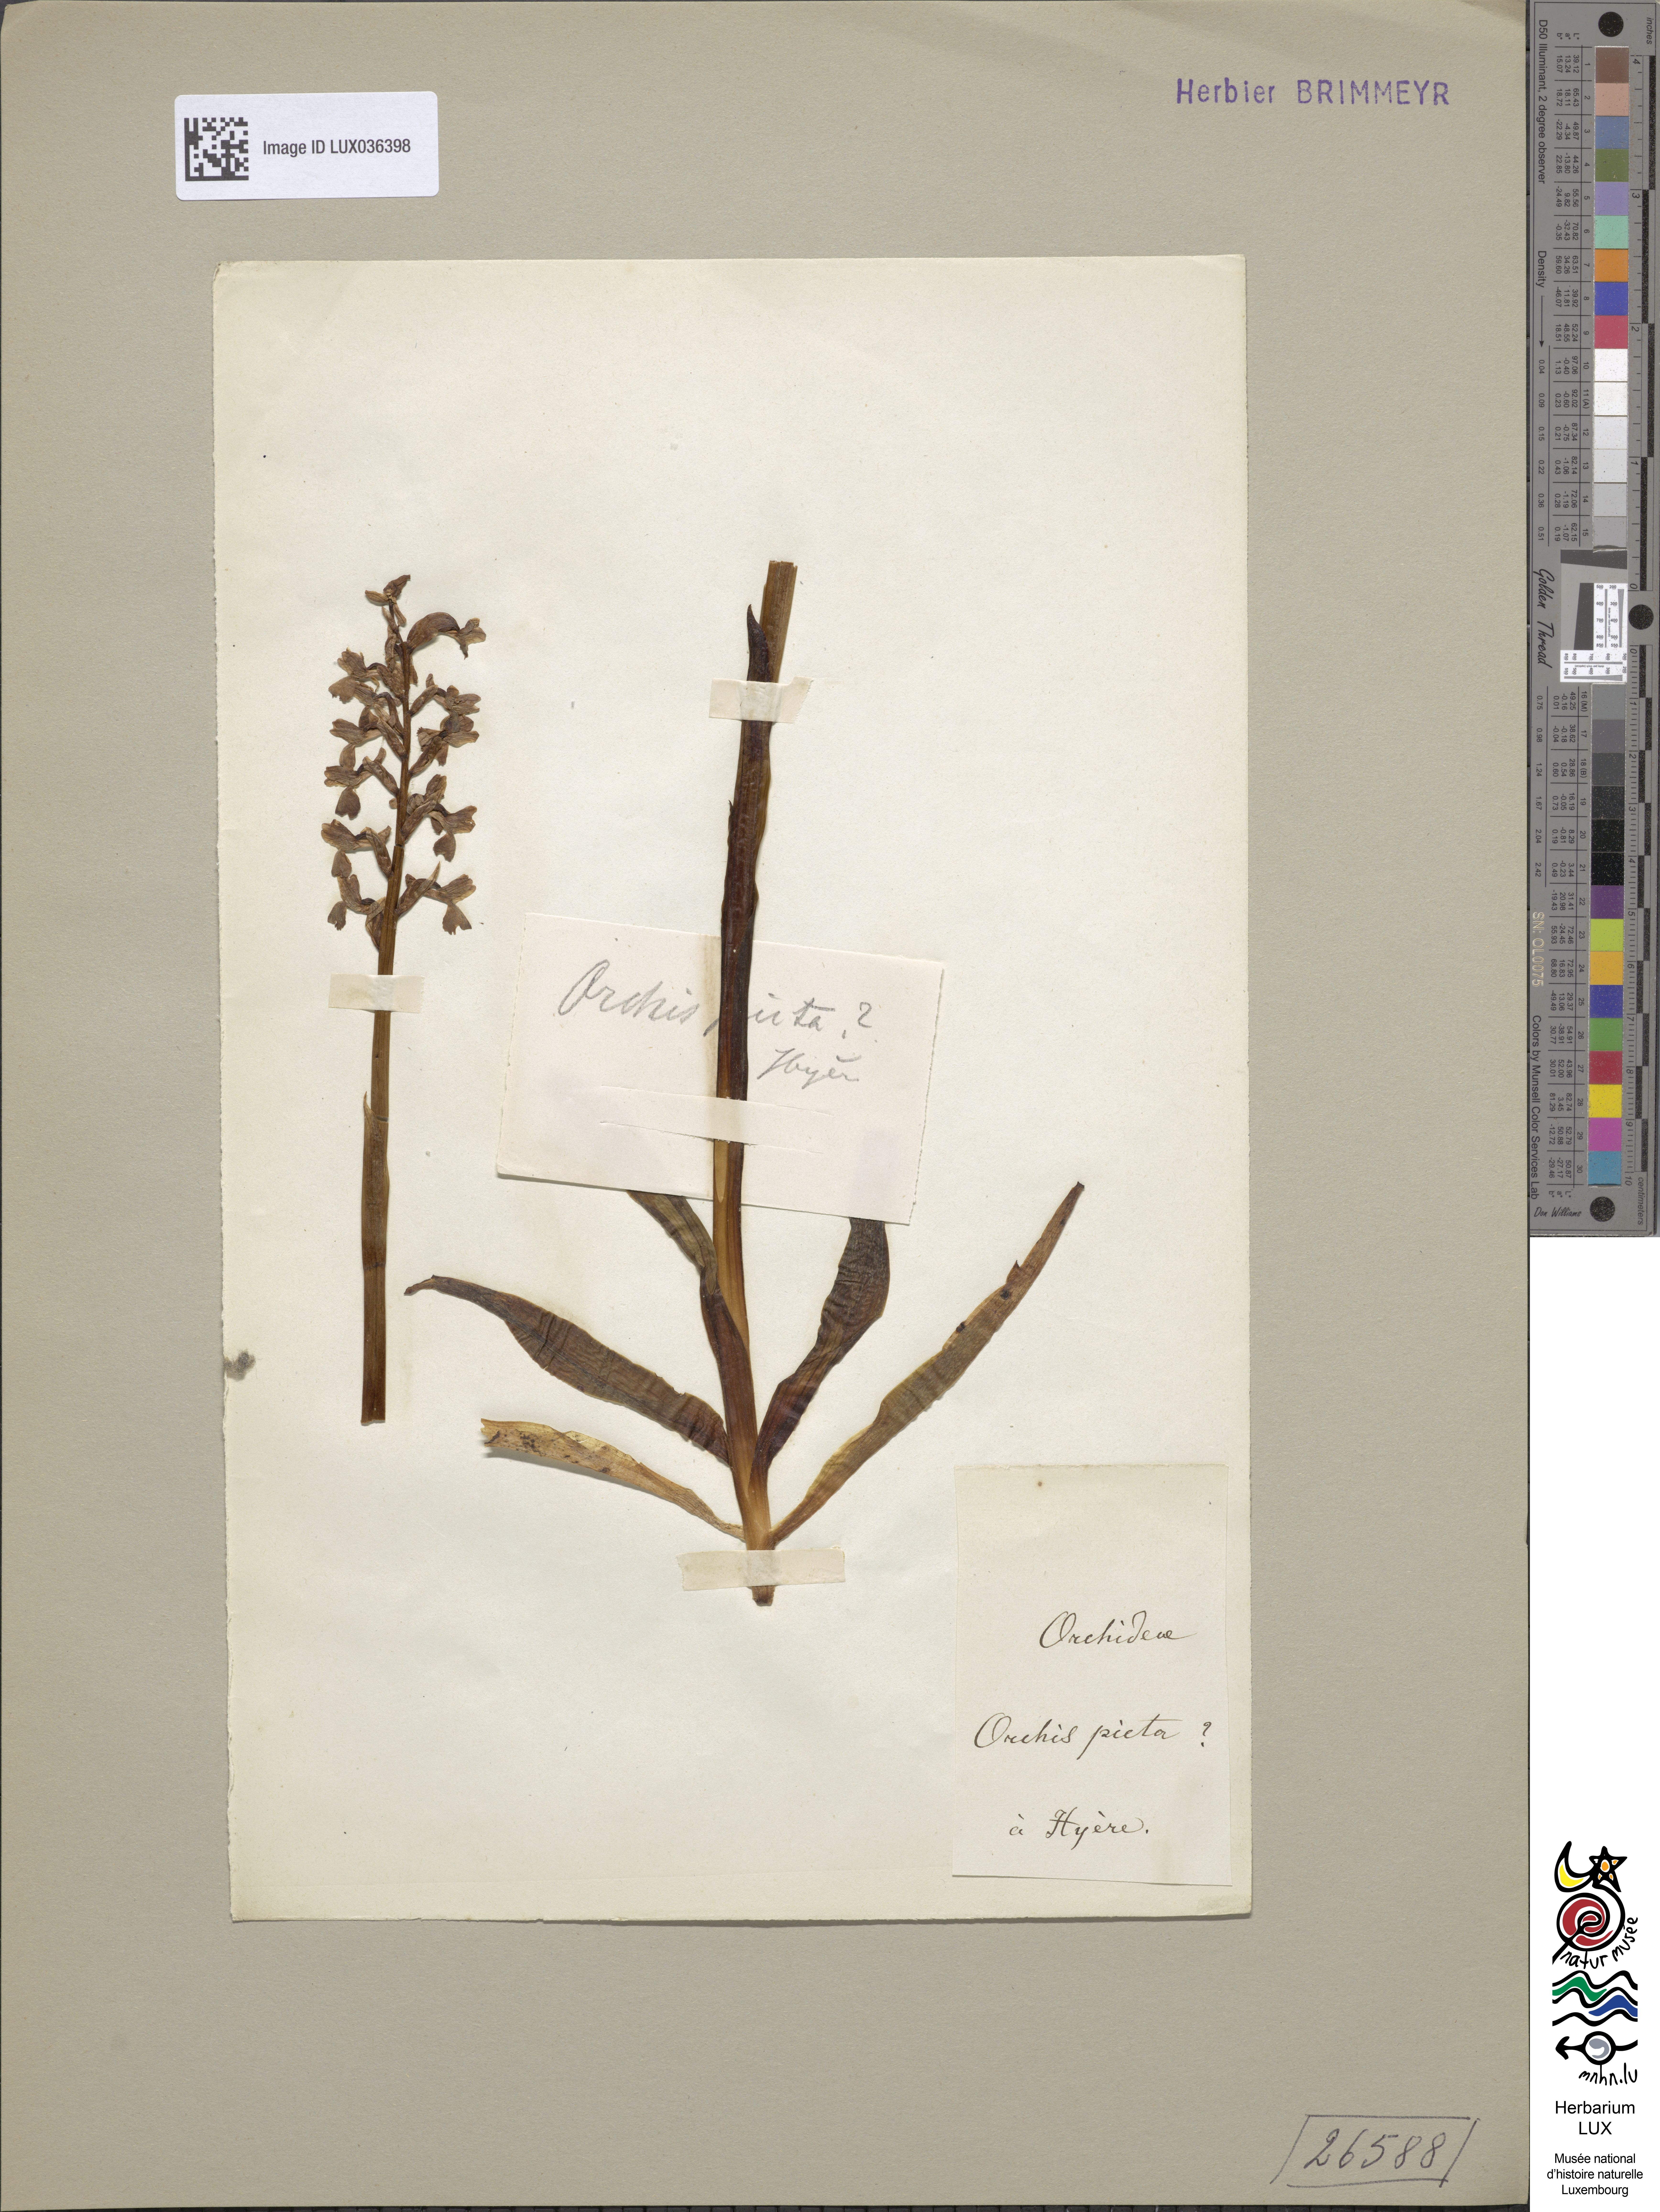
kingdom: Plantae
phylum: Tracheophyta
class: Liliopsida
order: Asparagales
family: Orchidaceae
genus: Anacamptis
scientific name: Anacamptis morio
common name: Green-winged orchid
